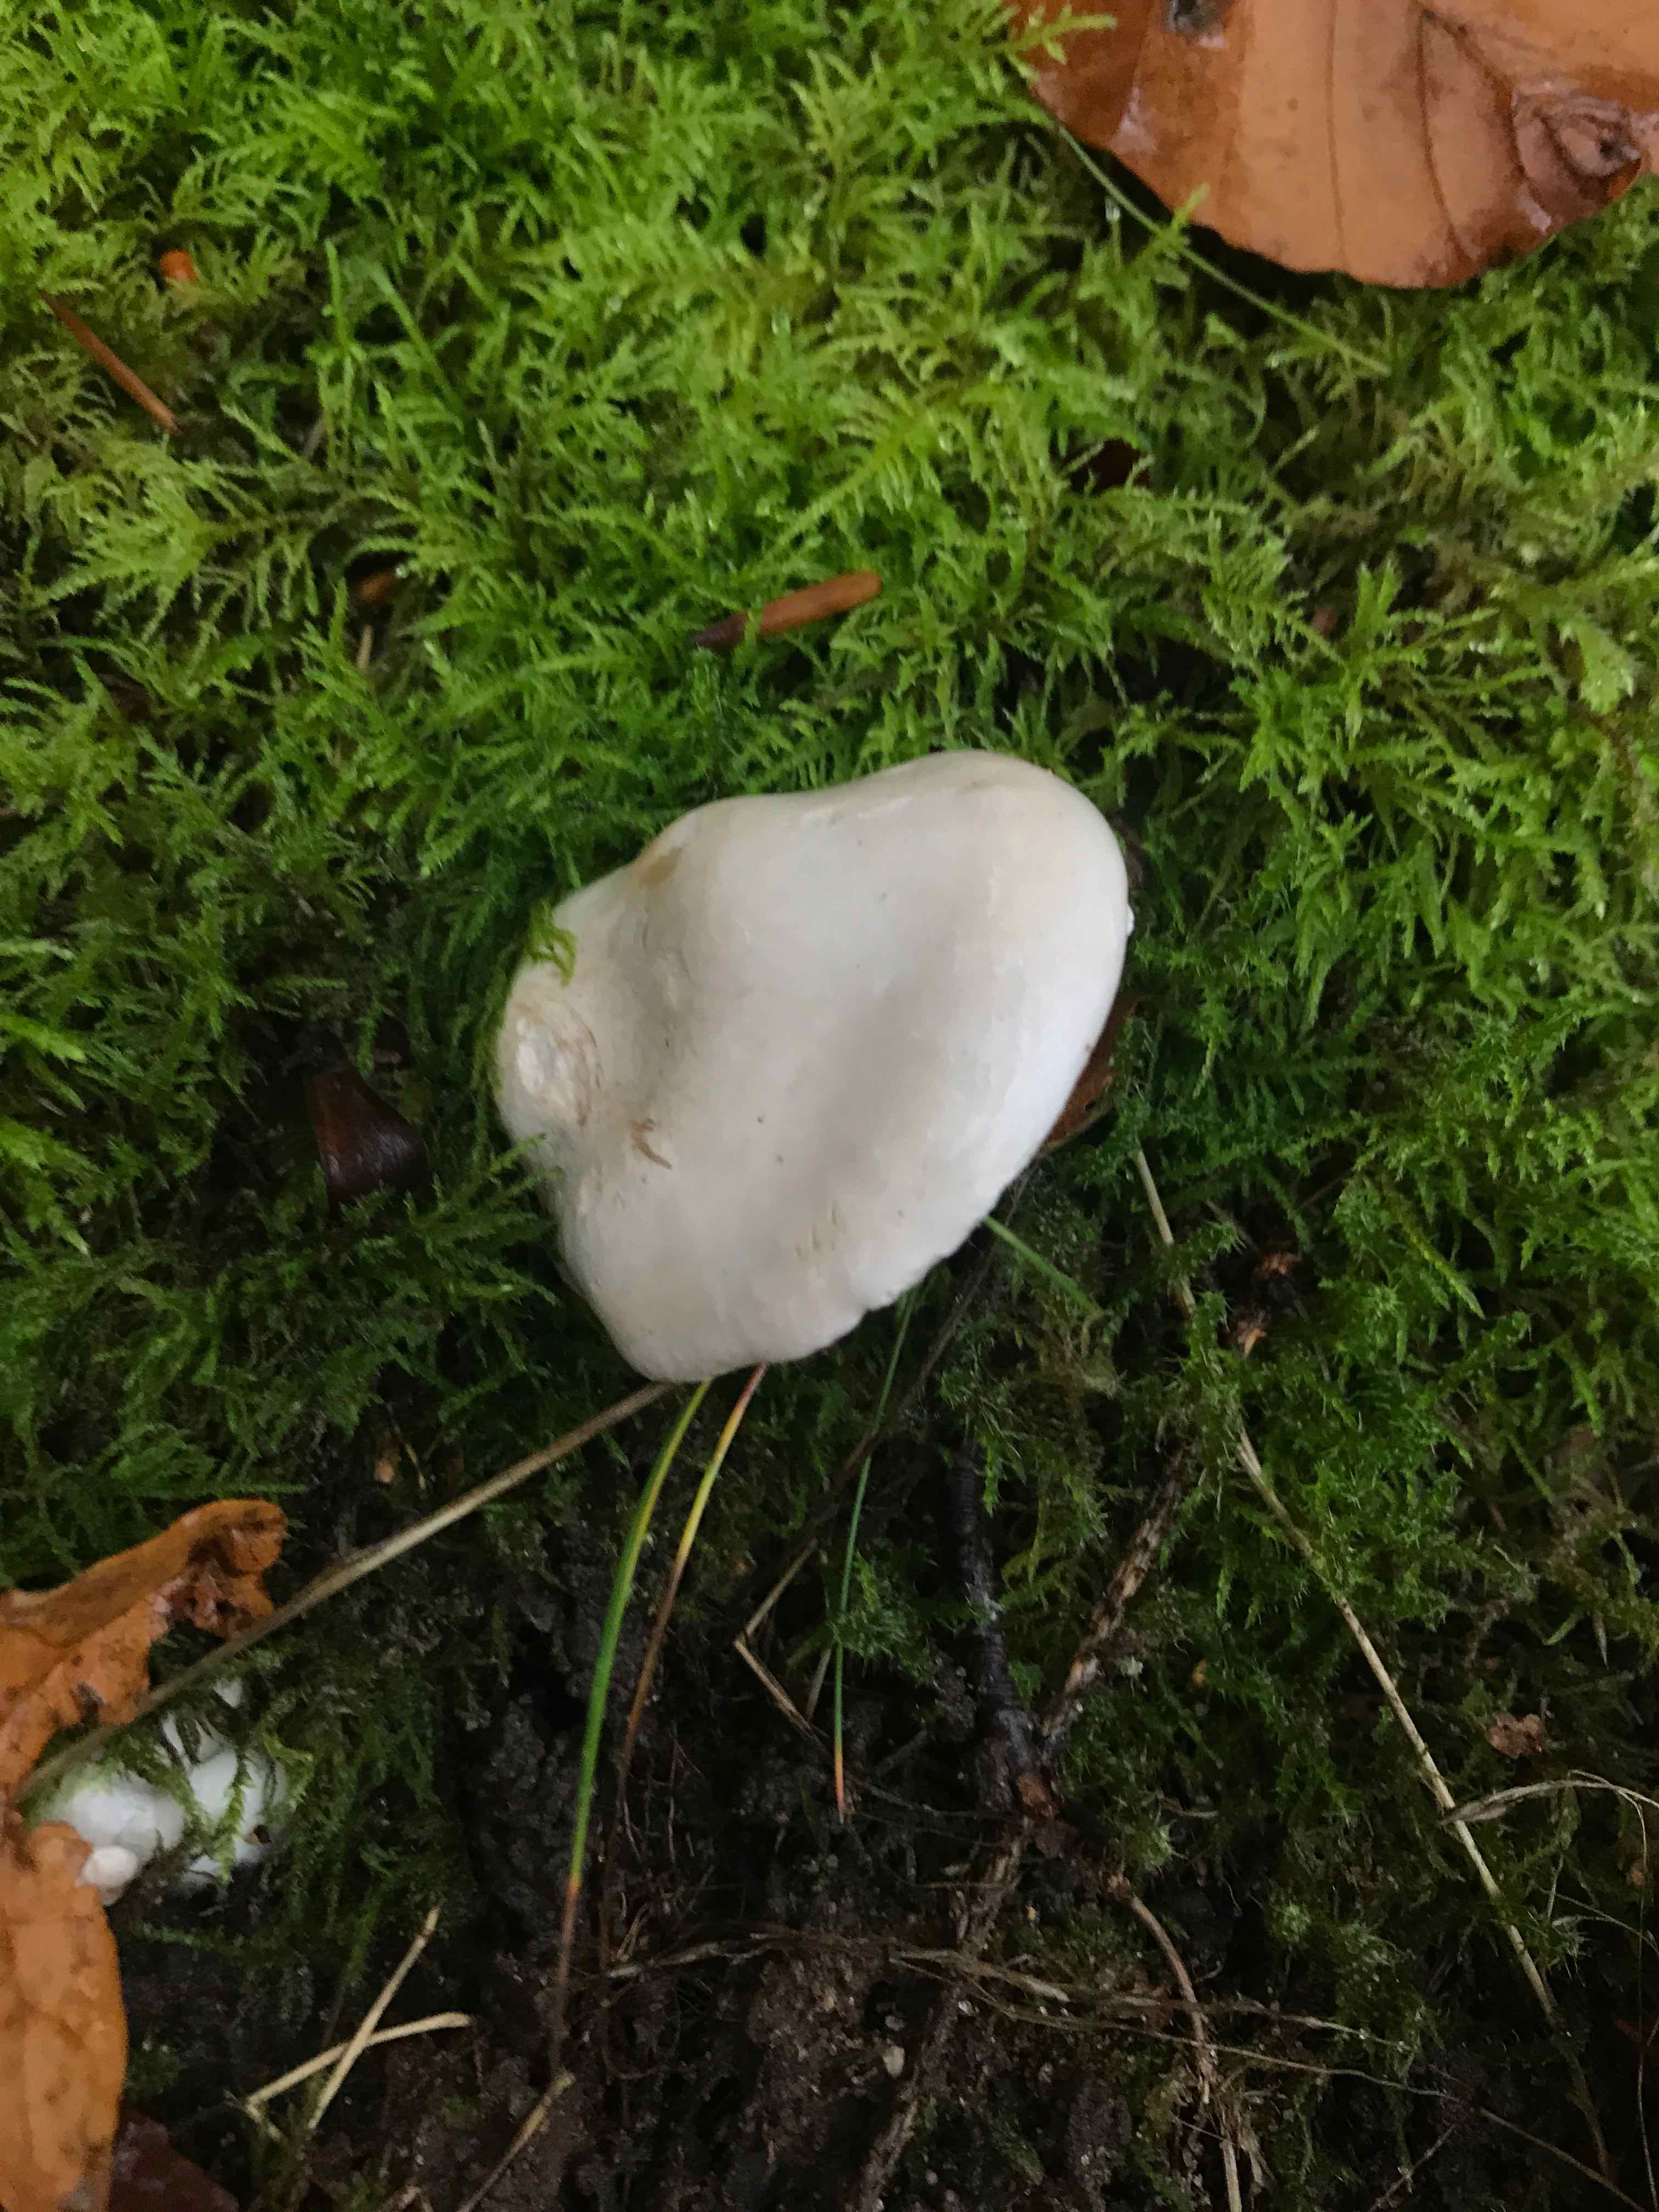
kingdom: Fungi
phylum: Basidiomycota
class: Agaricomycetes
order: Agaricales
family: Entolomataceae
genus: Clitopilus
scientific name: Clitopilus prunulus
